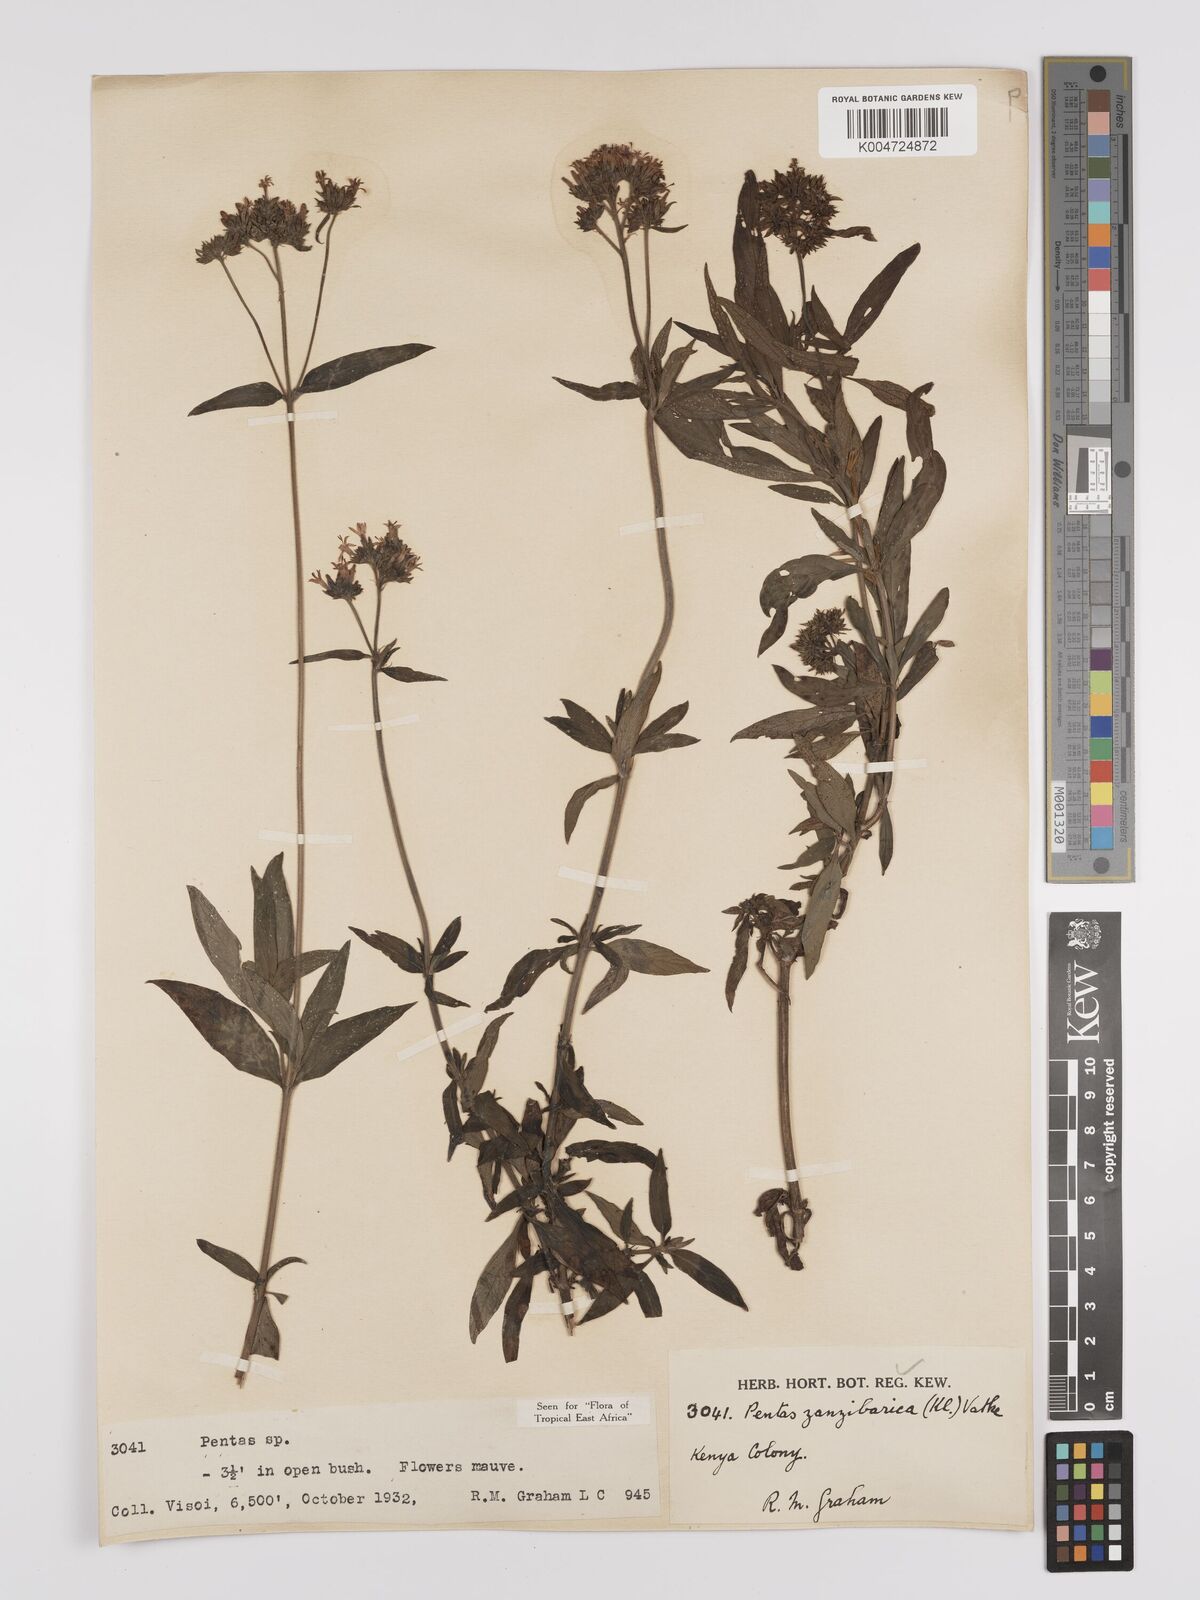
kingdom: Plantae
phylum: Tracheophyta
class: Magnoliopsida
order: Gentianales
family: Rubiaceae
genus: Pentas
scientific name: Pentas zanzibarica
